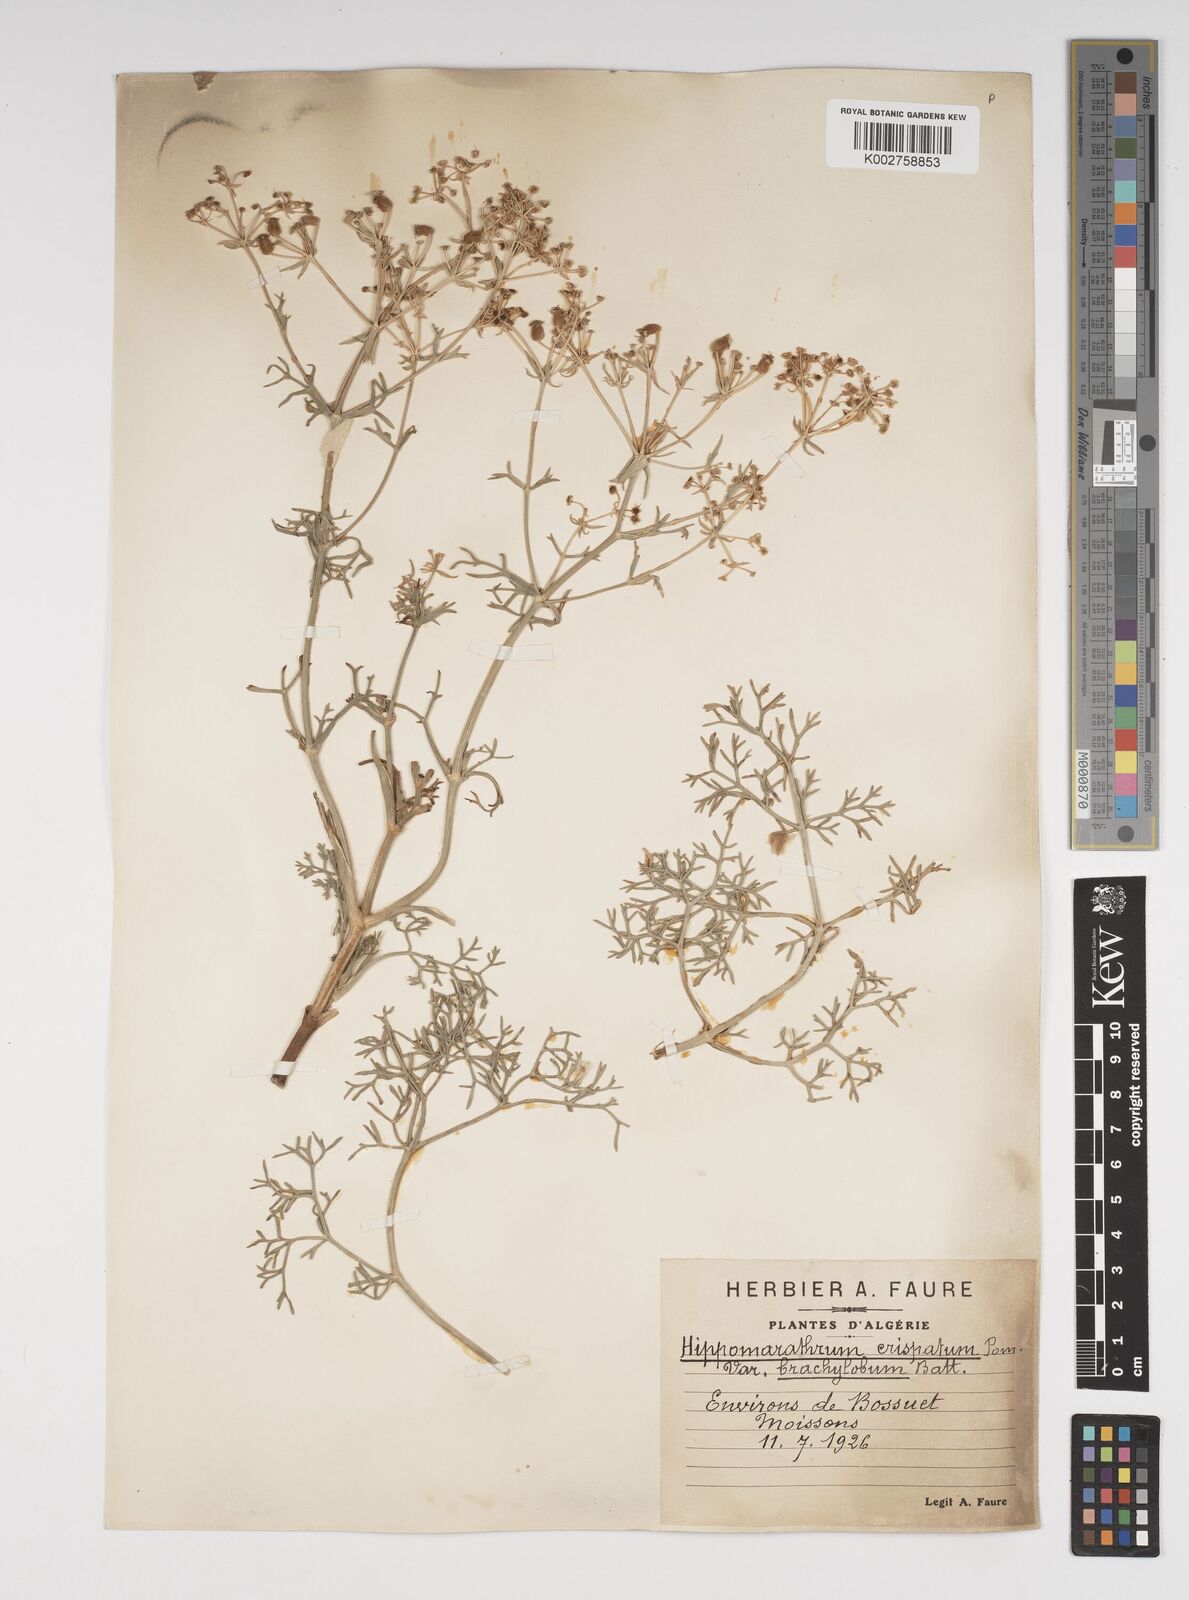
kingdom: Plantae
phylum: Tracheophyta
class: Magnoliopsida
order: Apiales
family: Apiaceae
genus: Cachrys
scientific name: Cachrys
